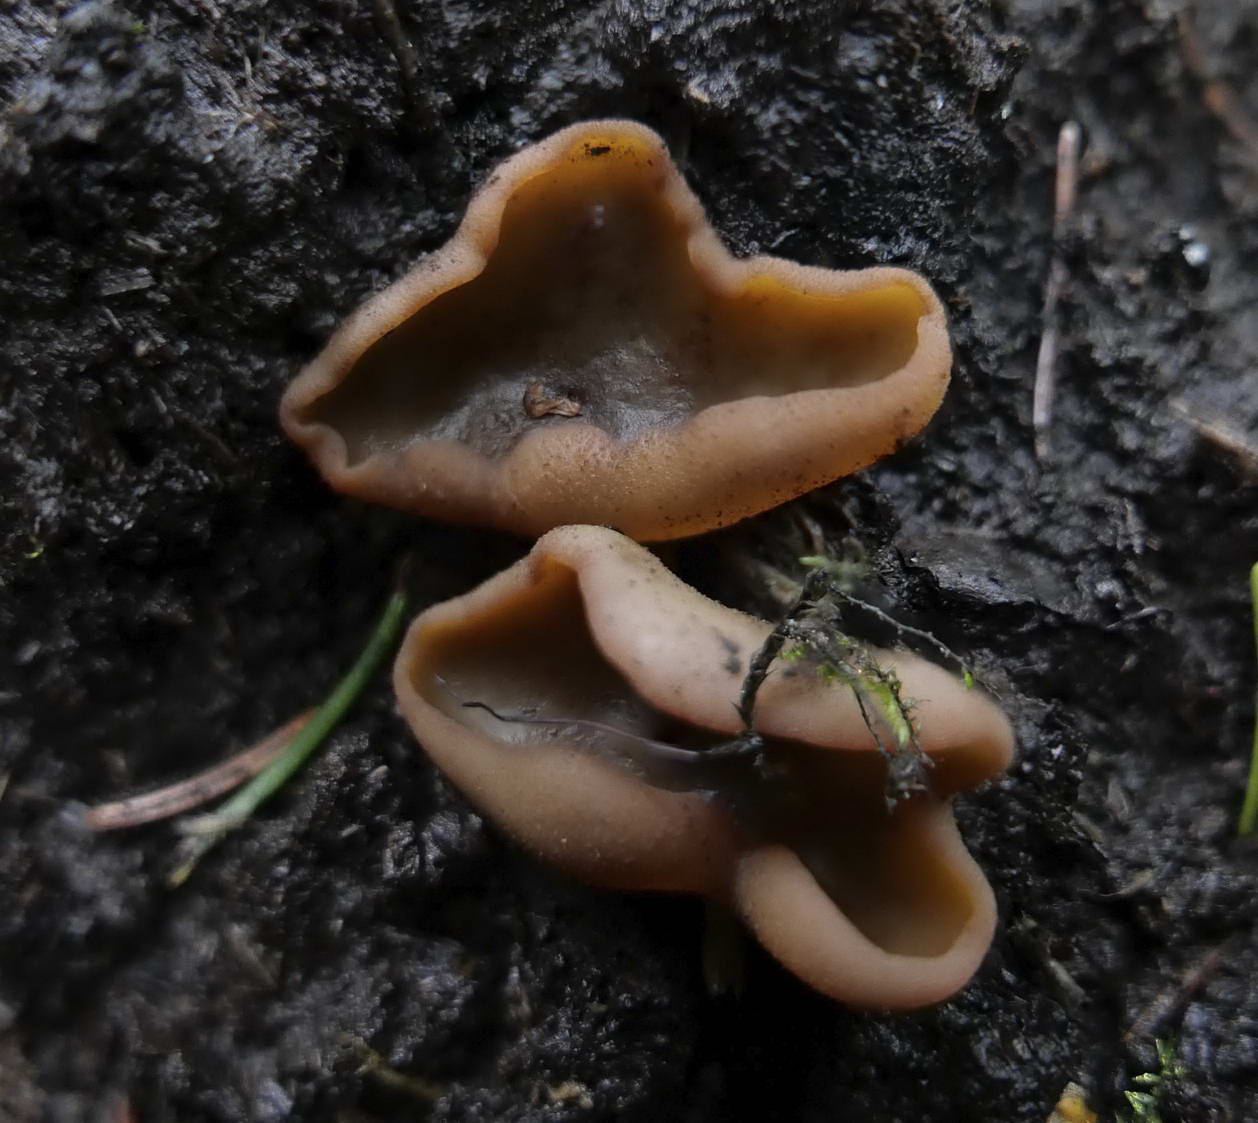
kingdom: Fungi
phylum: Ascomycota
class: Pezizomycetes
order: Pezizales
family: Pezizaceae
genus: Legaliana
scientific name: Legaliana limnaea
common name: mose-bægersvamp
